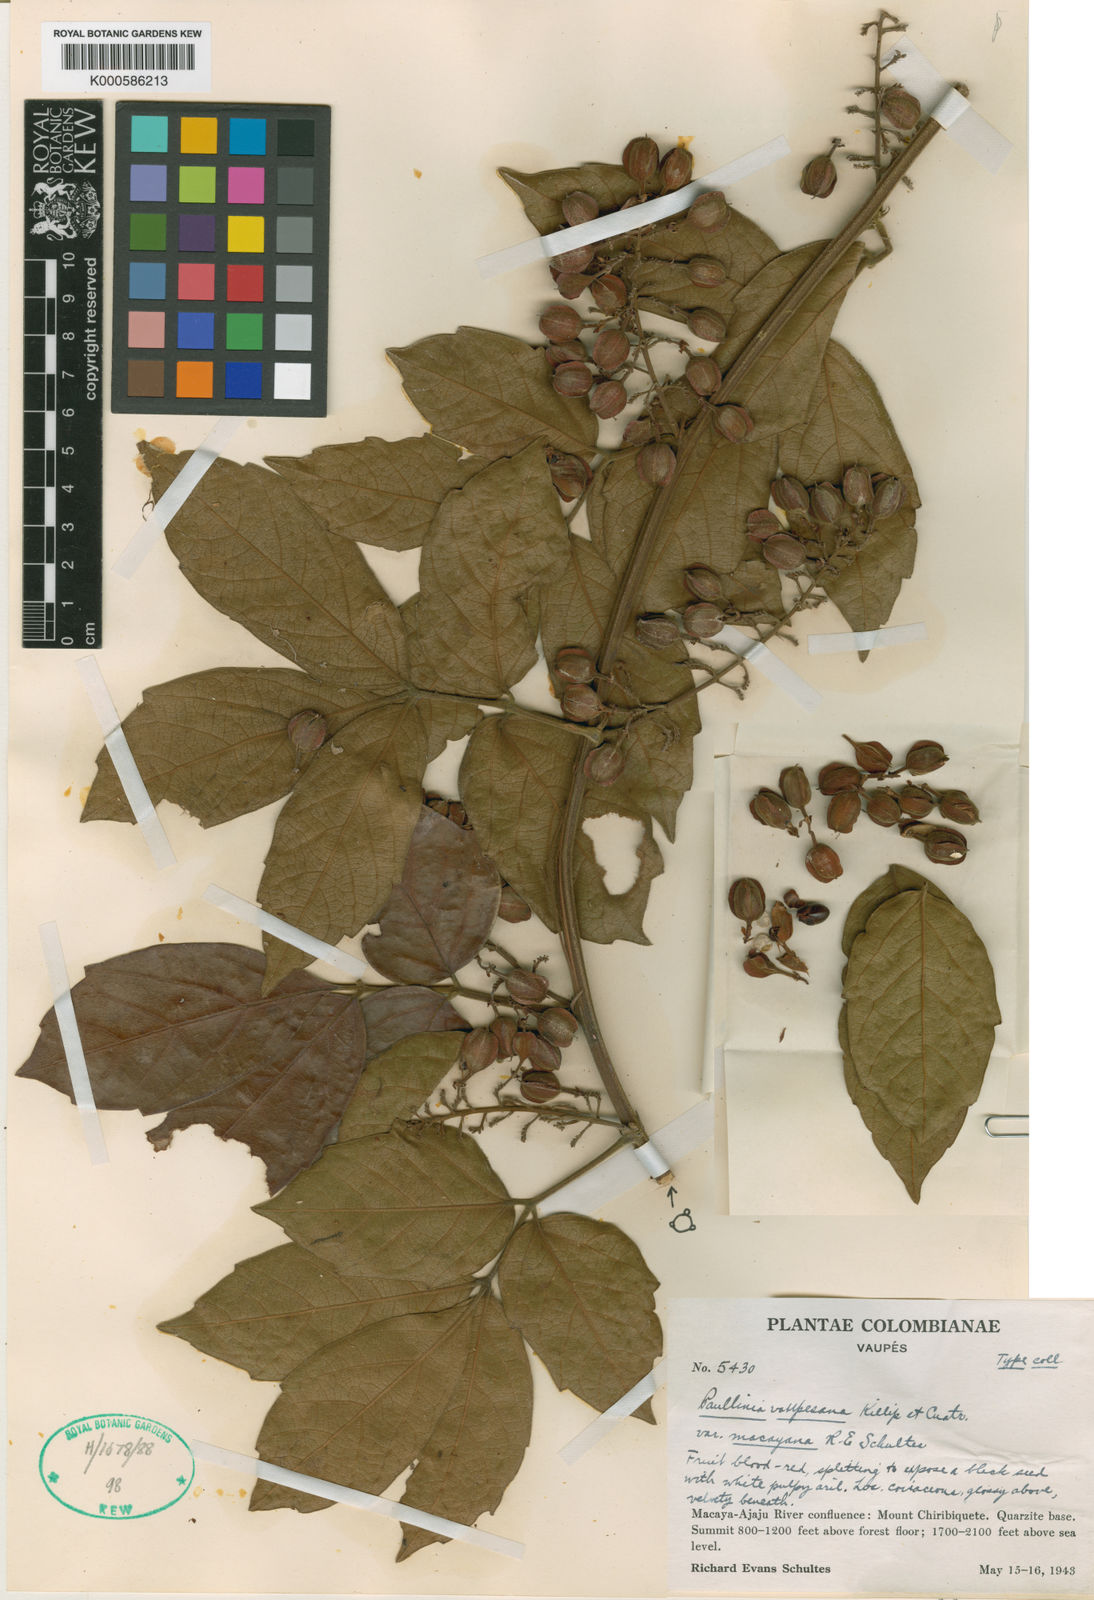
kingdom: Plantae
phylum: Tracheophyta
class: Magnoliopsida
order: Sapindales
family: Sapindaceae
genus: Paullinia
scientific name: Paullinia pterocarpa
